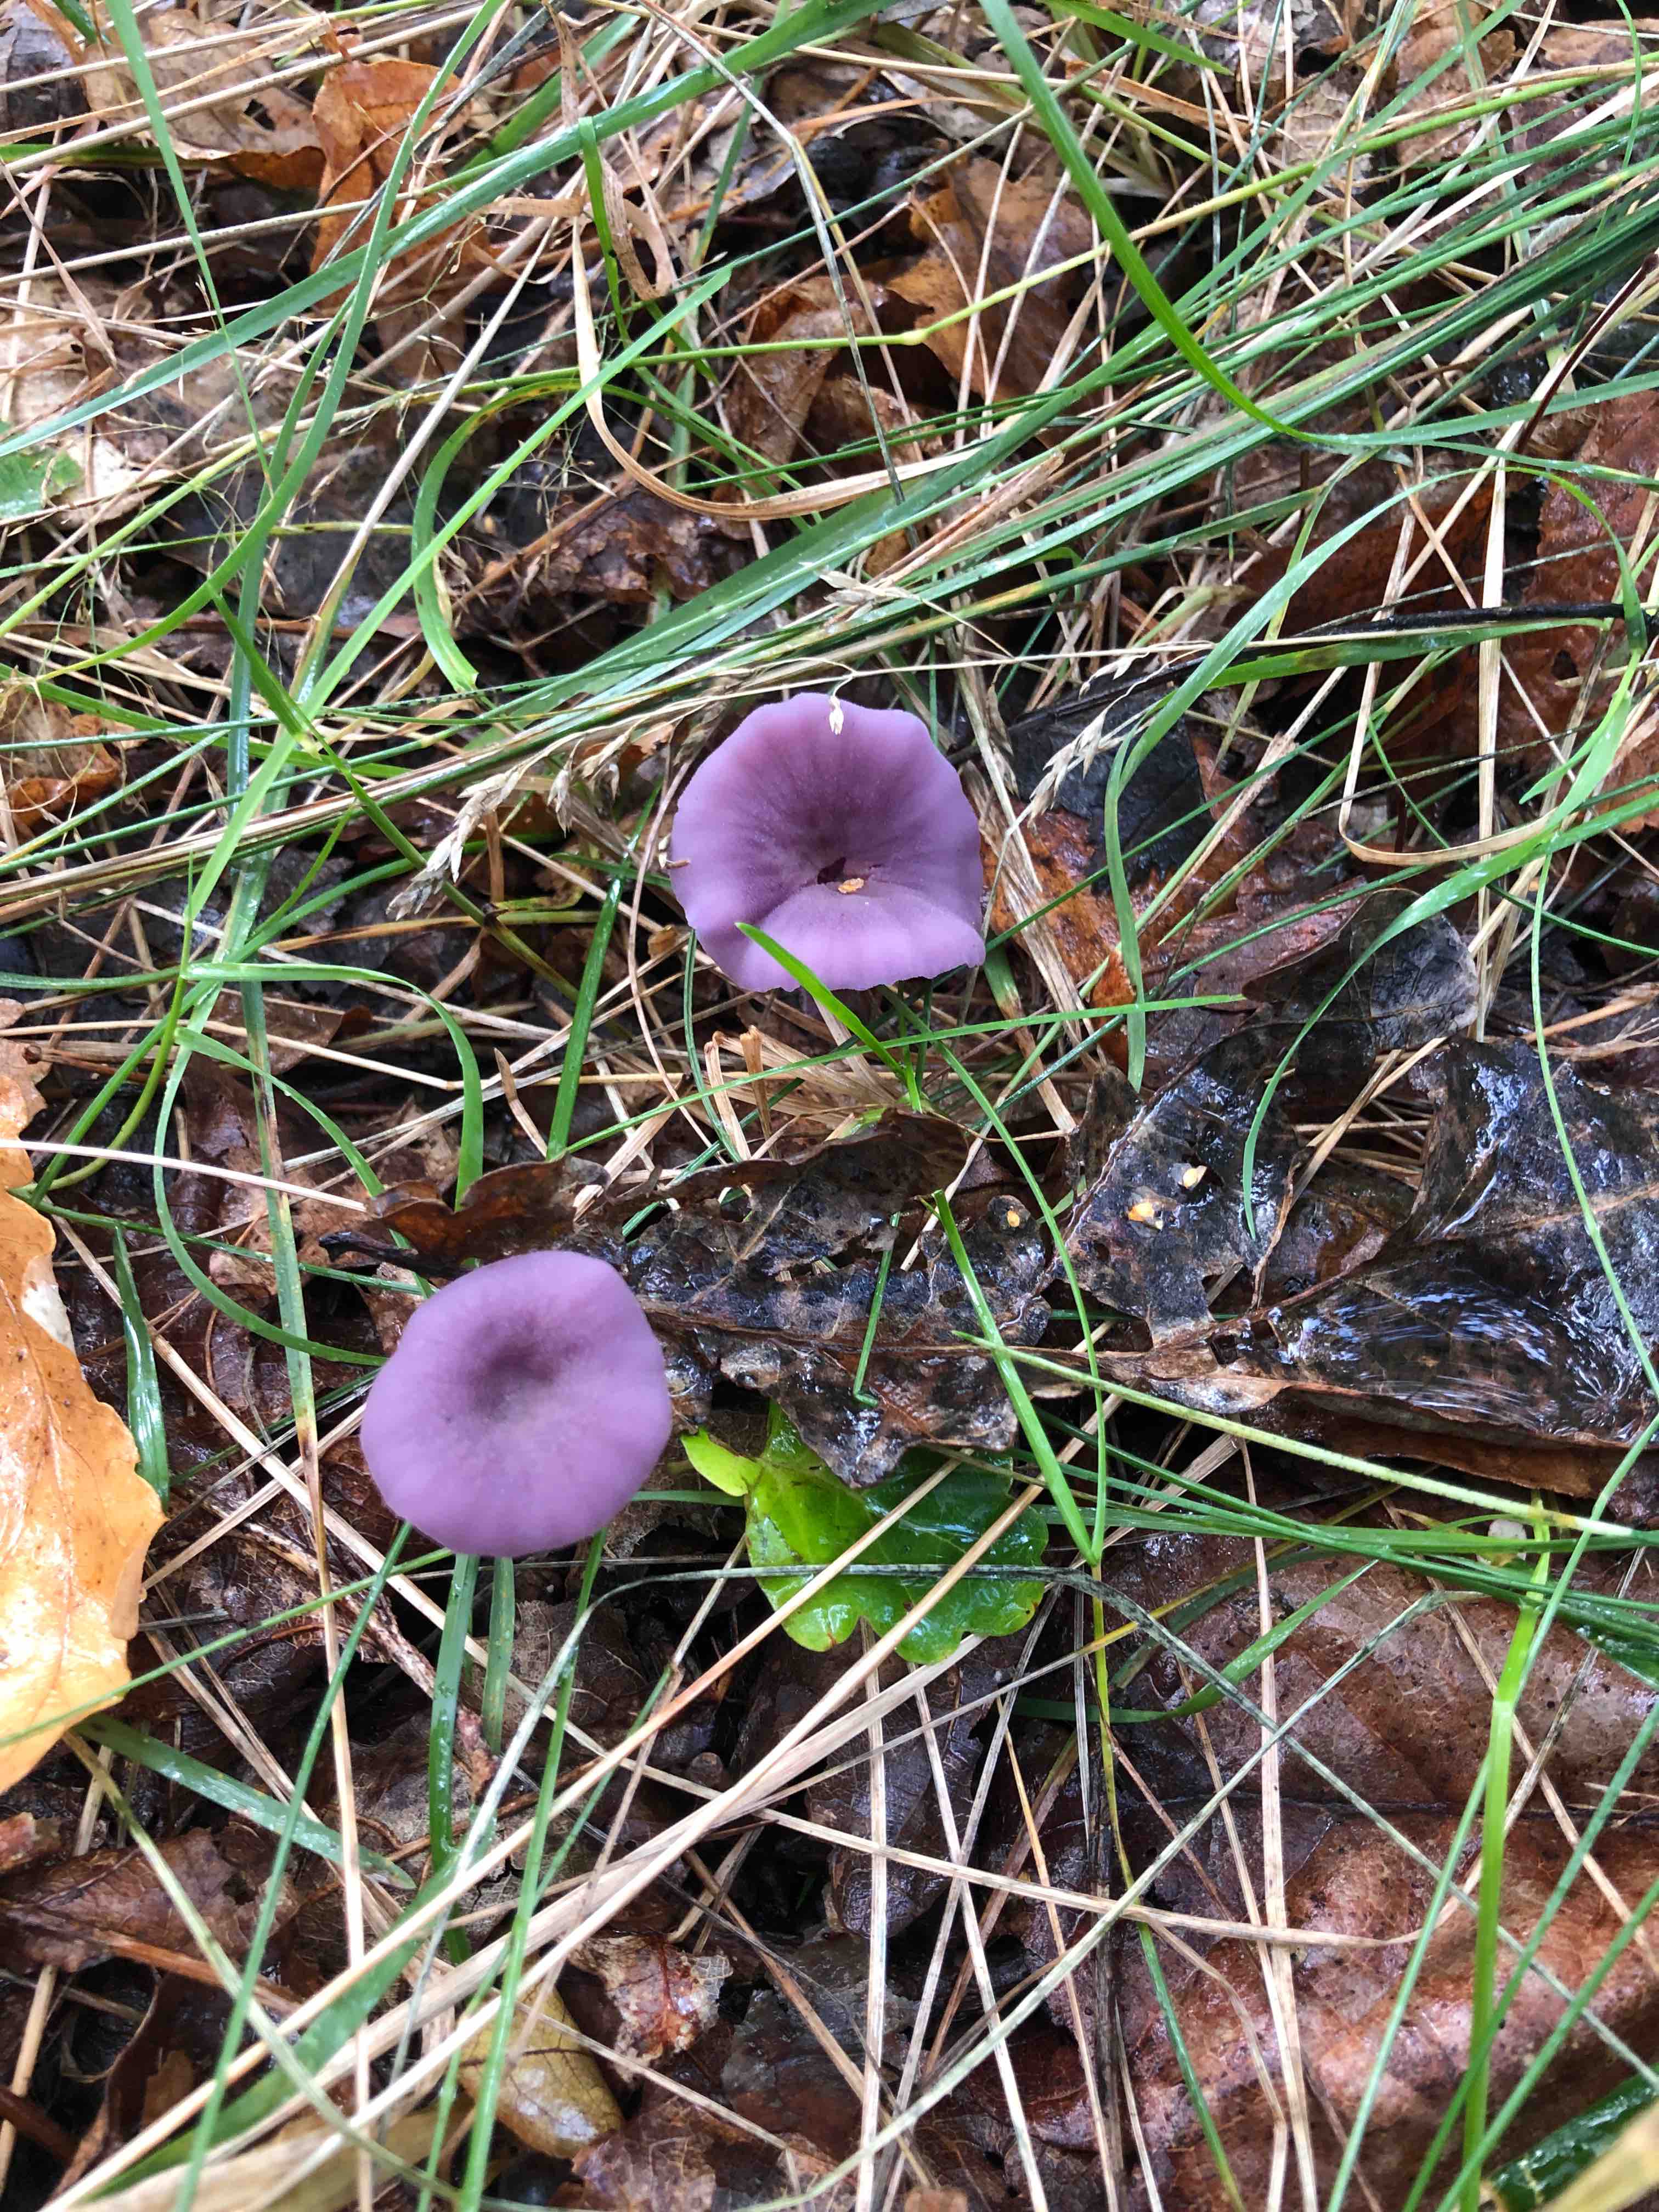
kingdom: Fungi
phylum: Basidiomycota
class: Agaricomycetes
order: Agaricales
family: Hydnangiaceae
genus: Laccaria
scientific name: Laccaria amethystina
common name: violet ametysthat
